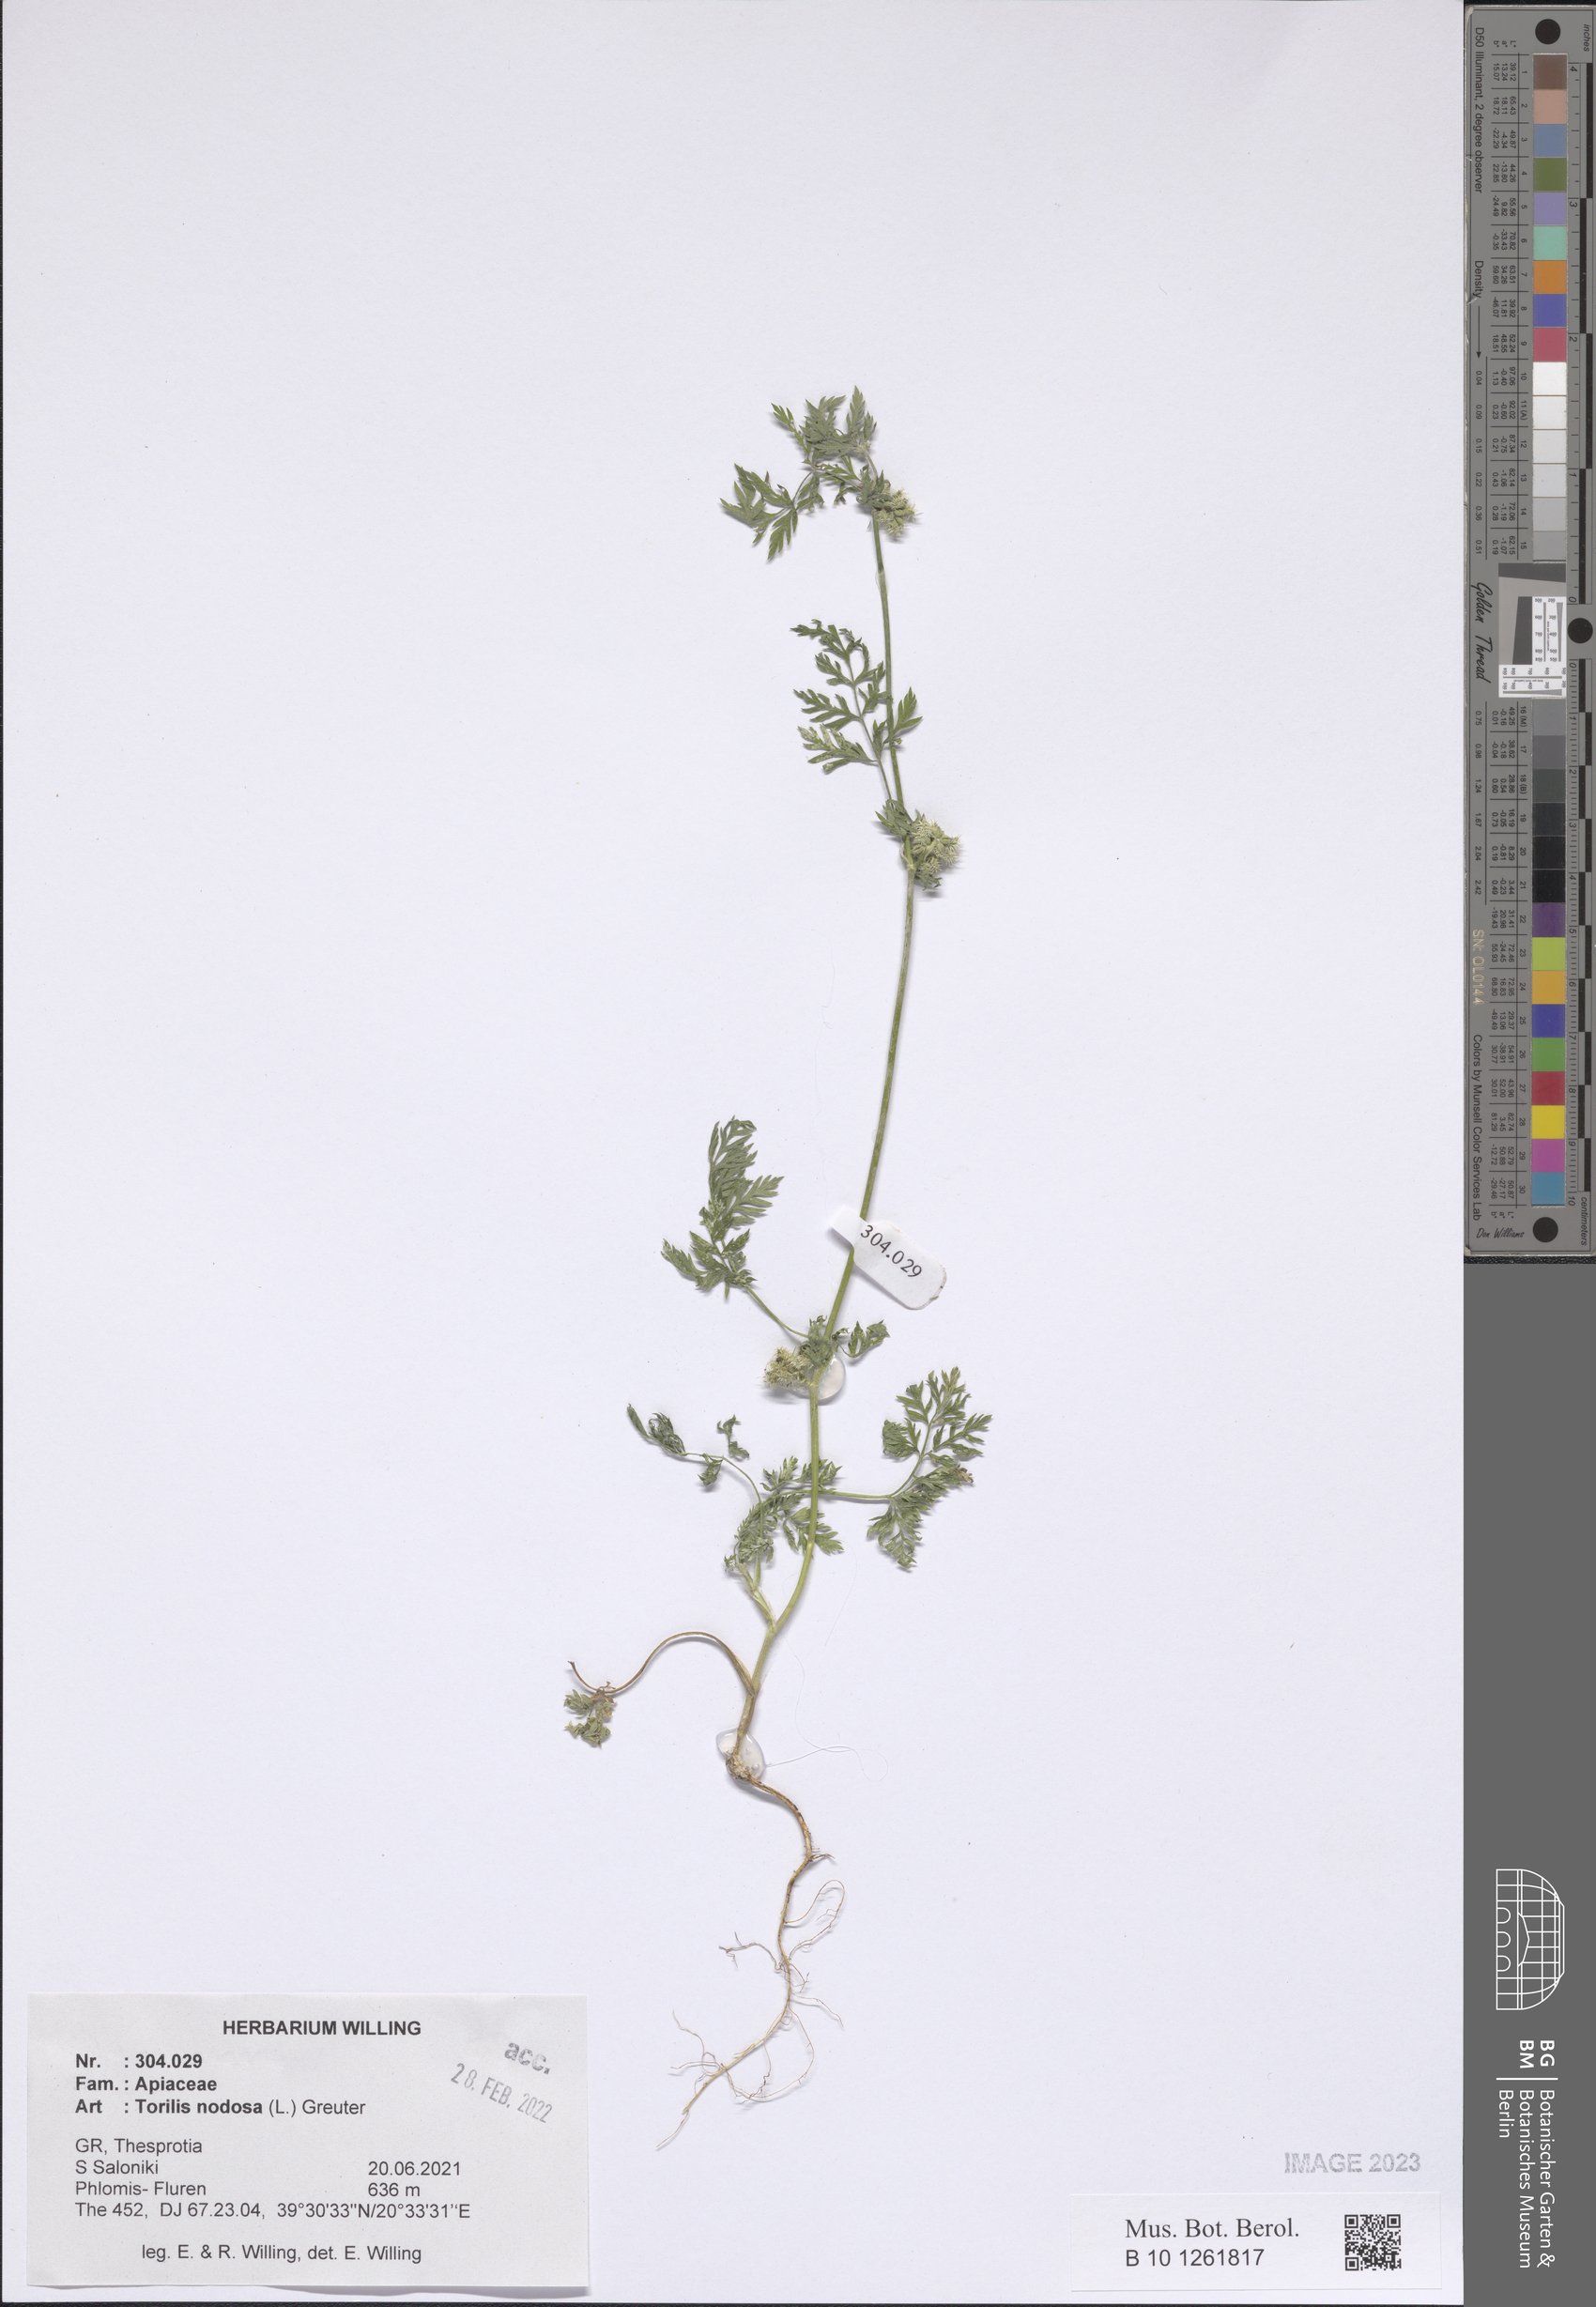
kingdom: Plantae
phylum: Tracheophyta
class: Magnoliopsida
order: Apiales
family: Apiaceae
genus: Torilis
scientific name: Torilis nodosa
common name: Knotted hedge-parsley
